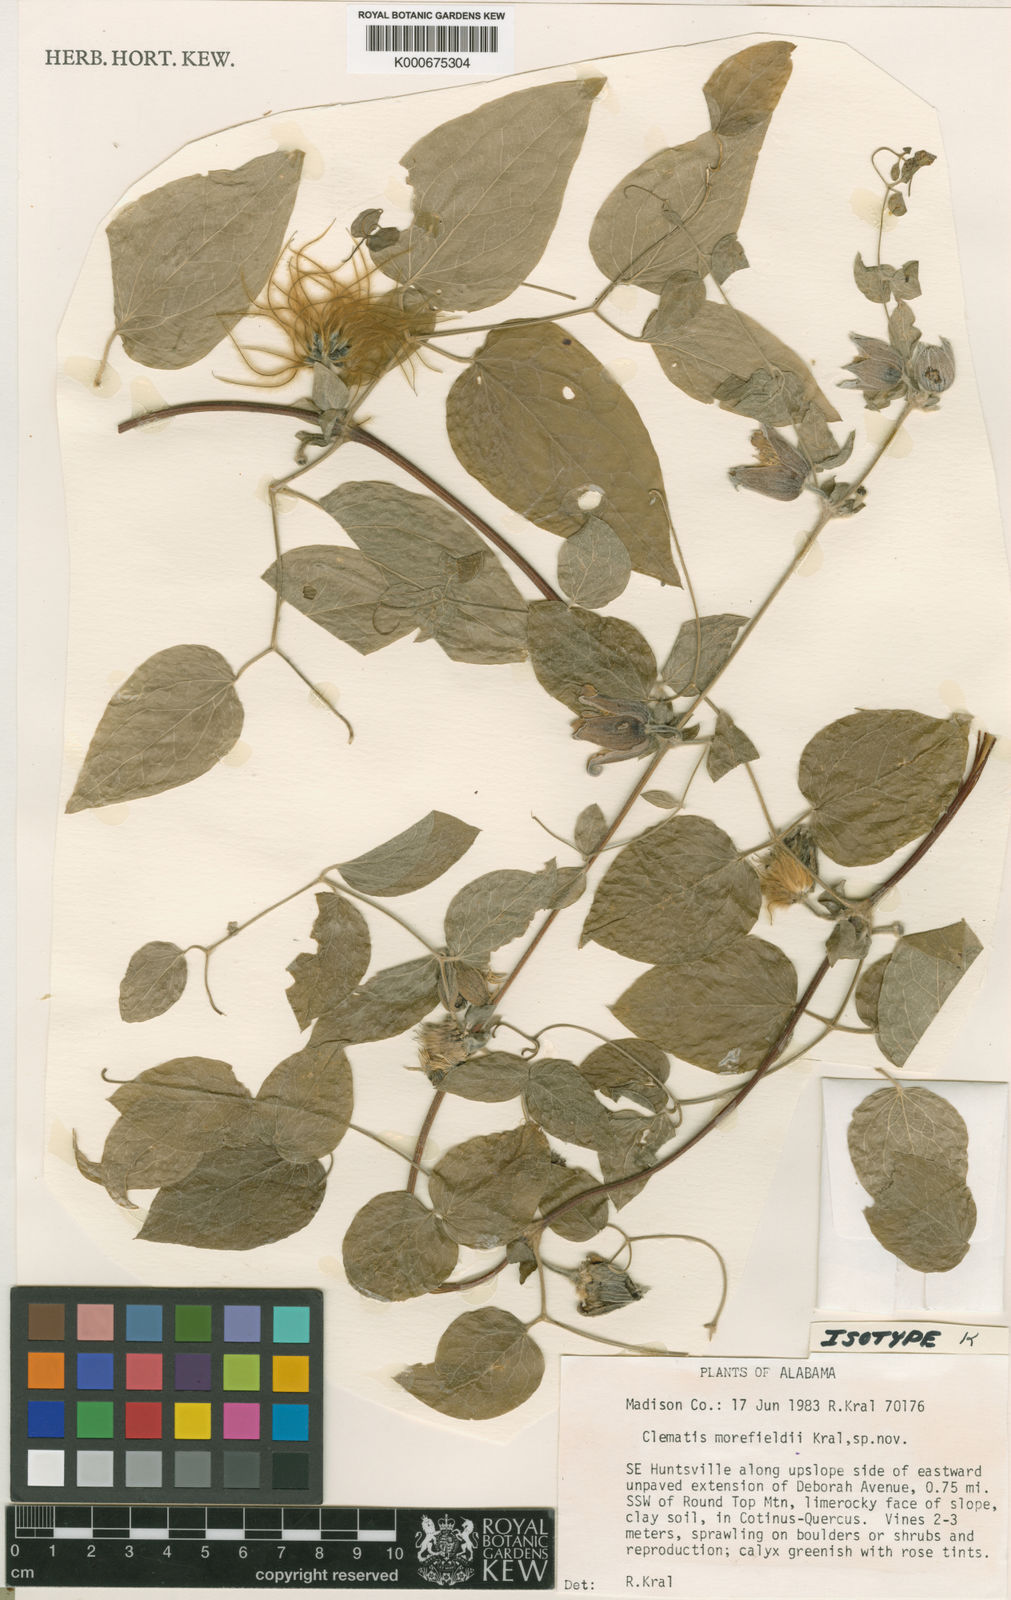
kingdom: Plantae
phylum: Tracheophyta
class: Magnoliopsida
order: Ranunculales
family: Ranunculaceae
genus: Clematis
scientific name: Clematis morefieldii
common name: Morefield's clematis
